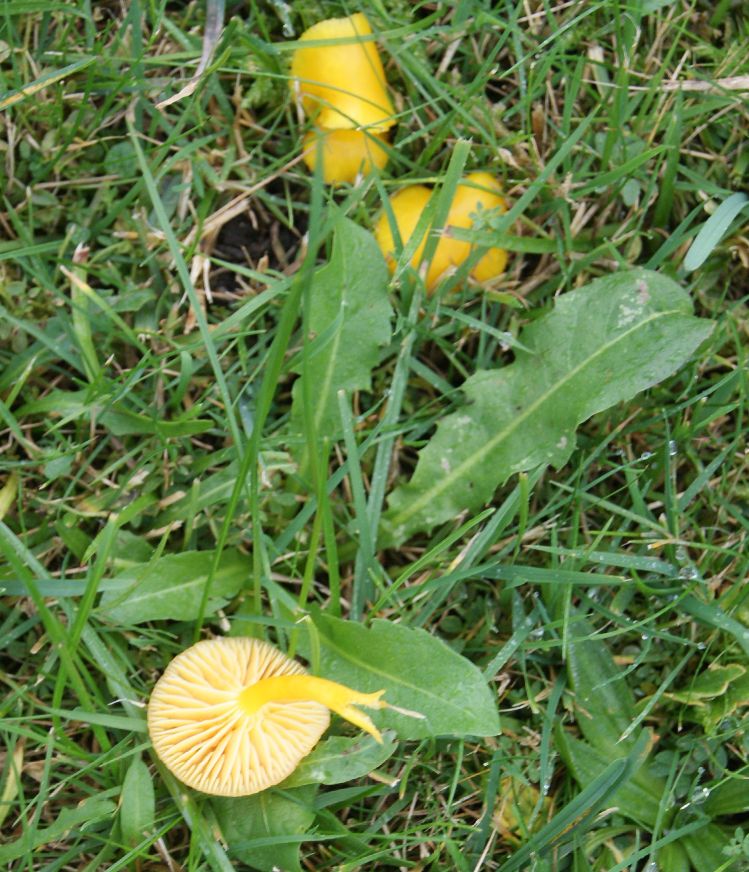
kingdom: Fungi
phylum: Basidiomycota
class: Agaricomycetes
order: Agaricales
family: Hygrophoraceae
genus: Hygrocybe
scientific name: Hygrocybe ceracea
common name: voksgul vokshat
